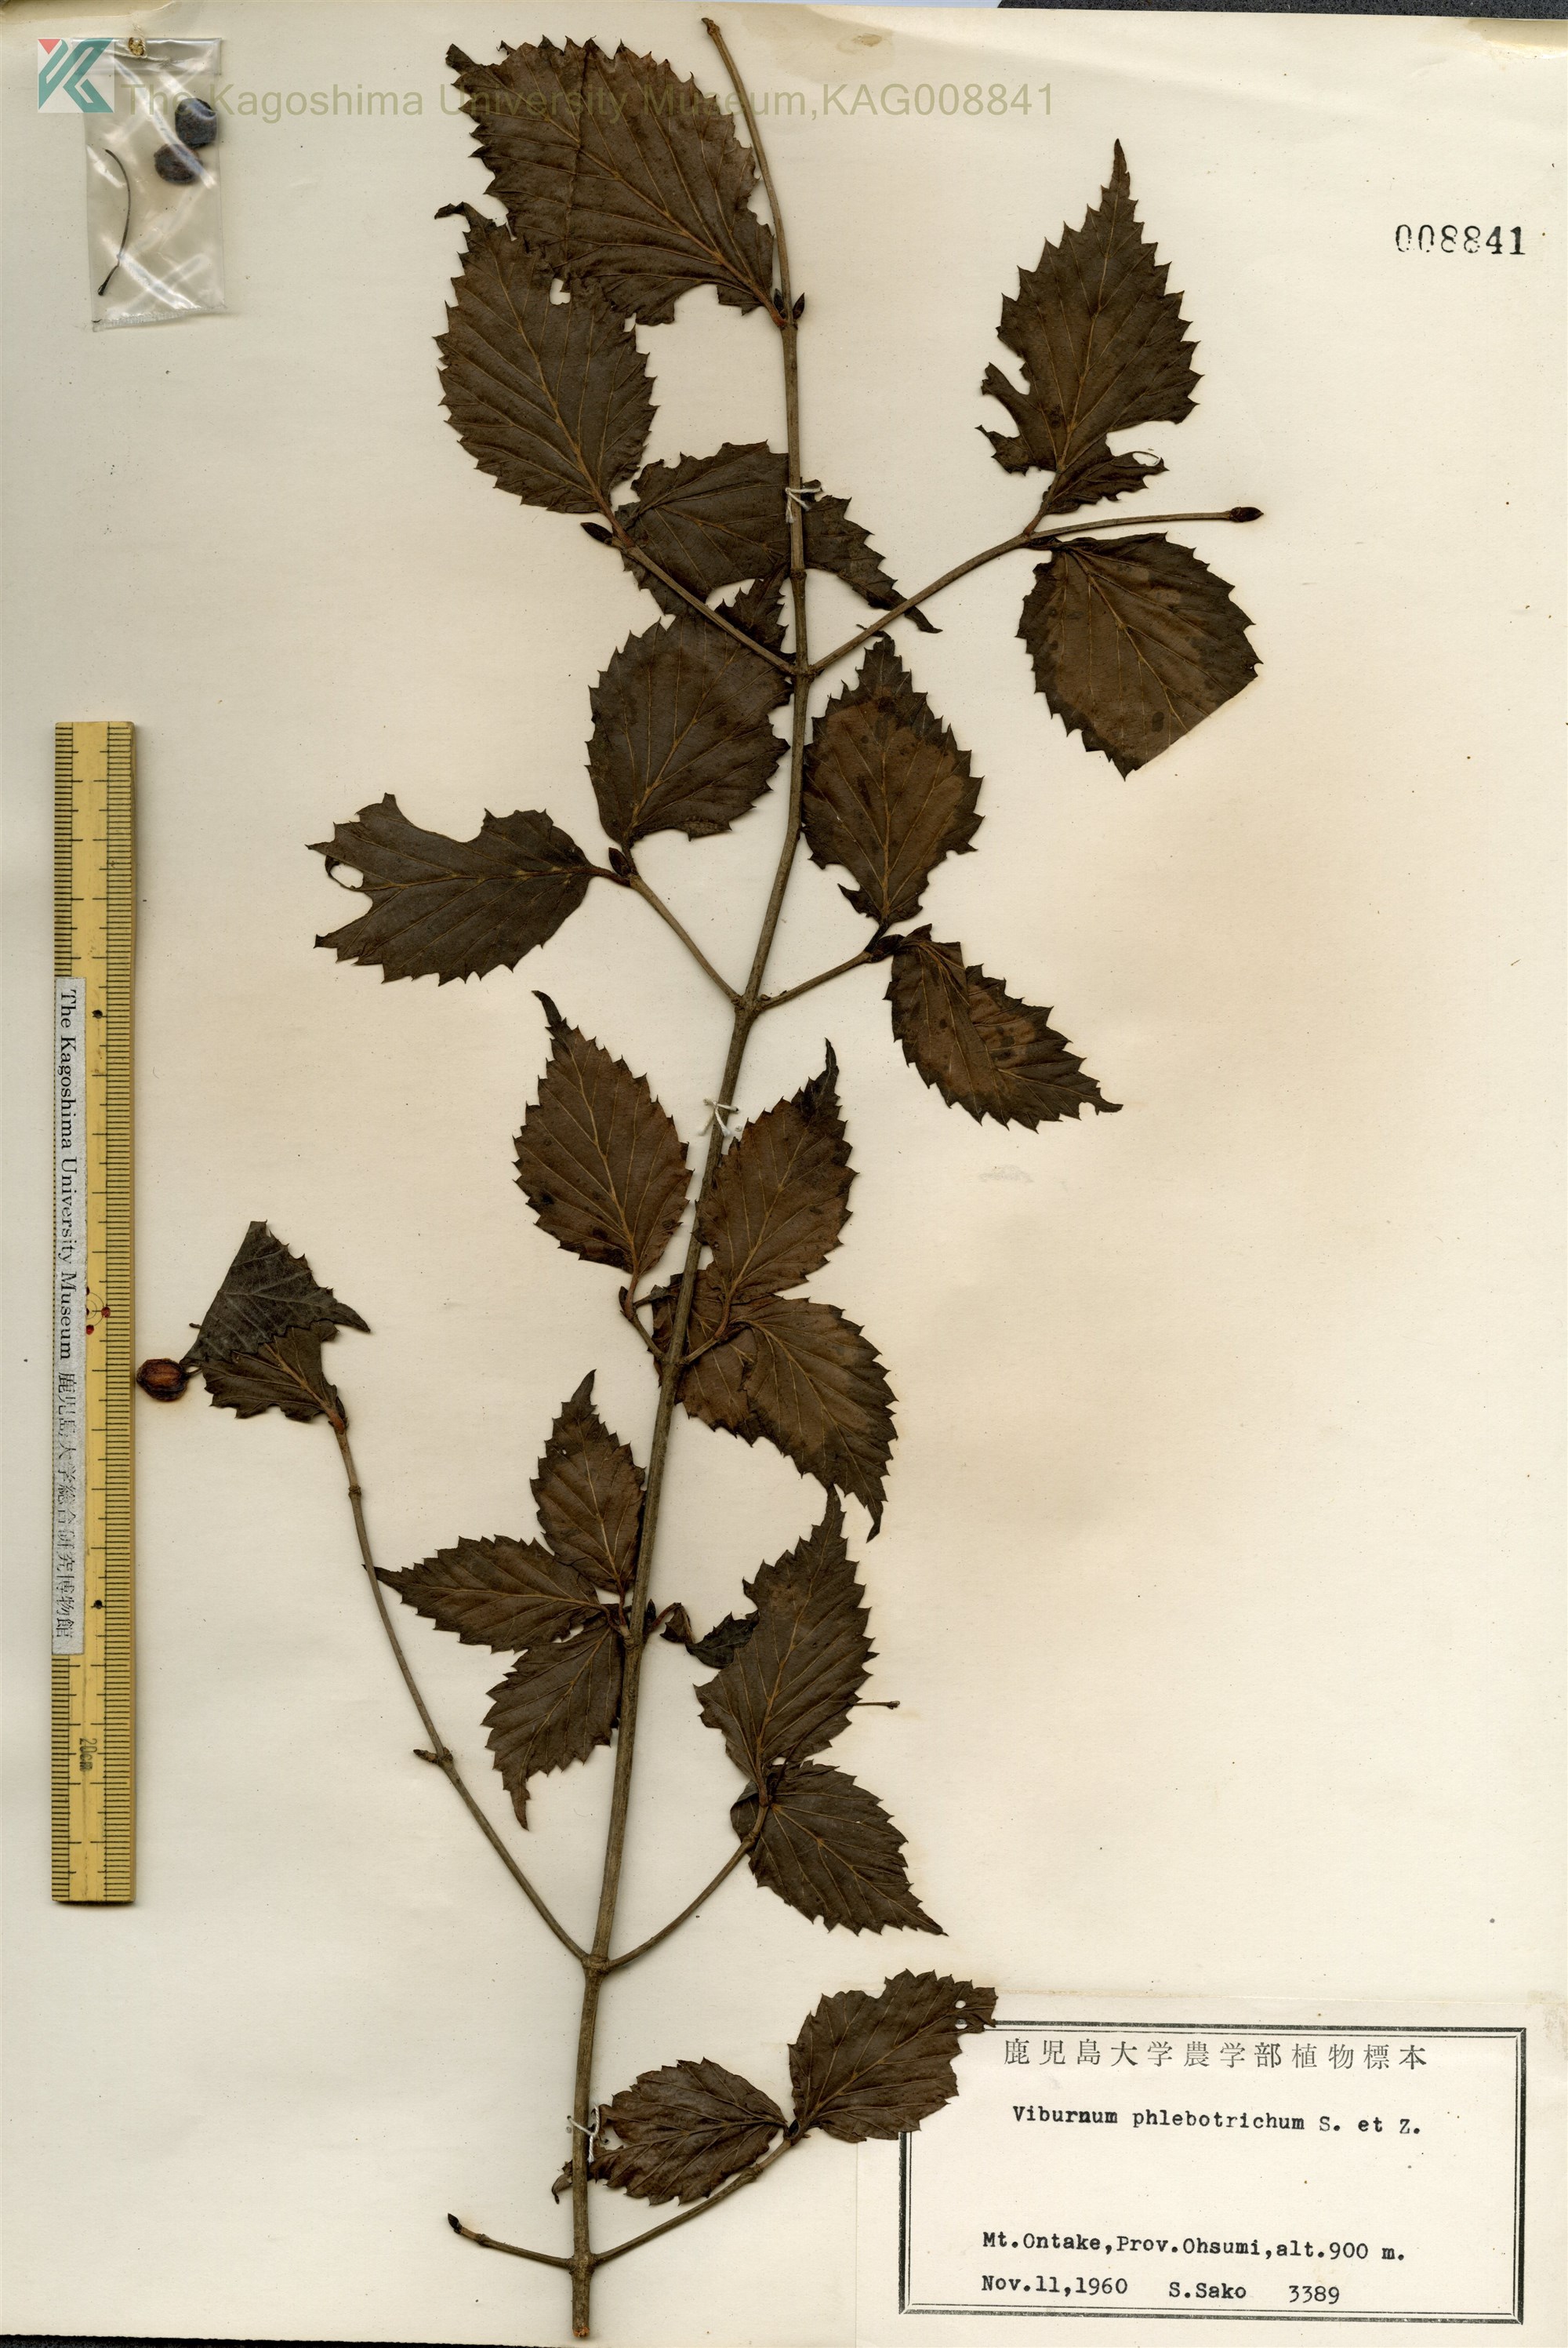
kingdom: Plantae
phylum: Tracheophyta
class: Magnoliopsida
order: Dipsacales
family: Viburnaceae
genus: Viburnum
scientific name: Viburnum phlebotrichum
